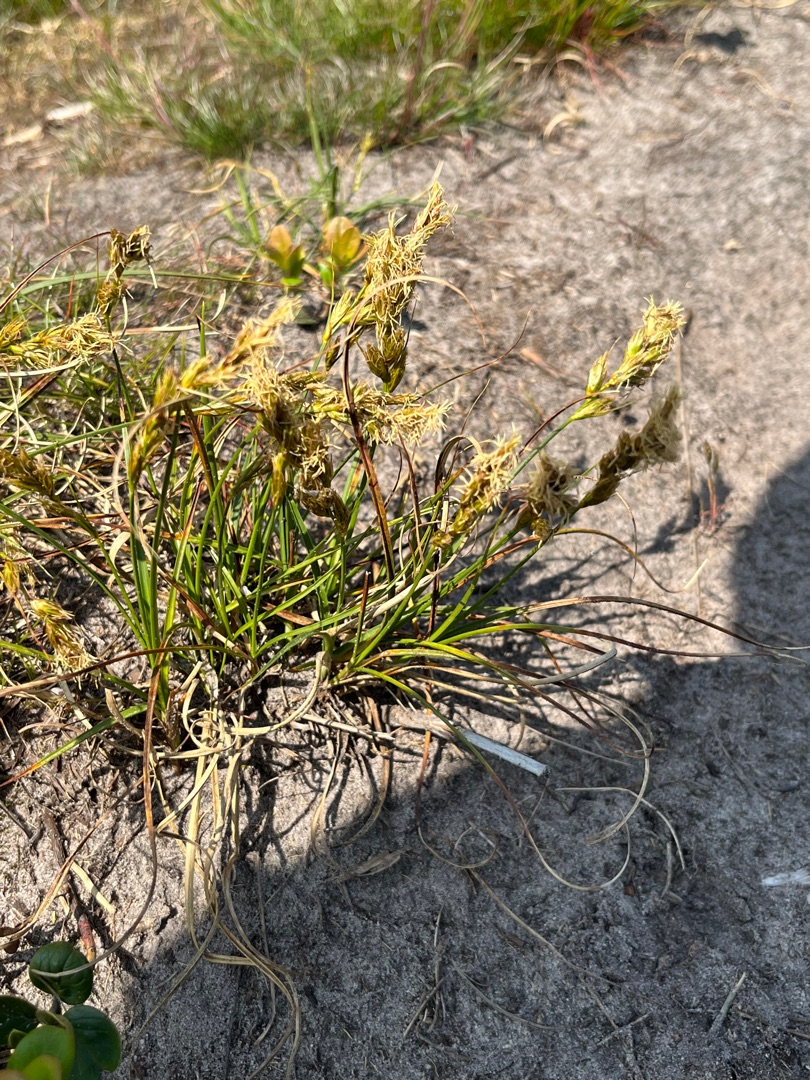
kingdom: Plantae
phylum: Tracheophyta
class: Liliopsida
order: Poales
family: Cyperaceae
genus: Carex
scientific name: Carex arenaria
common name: Sand-star
